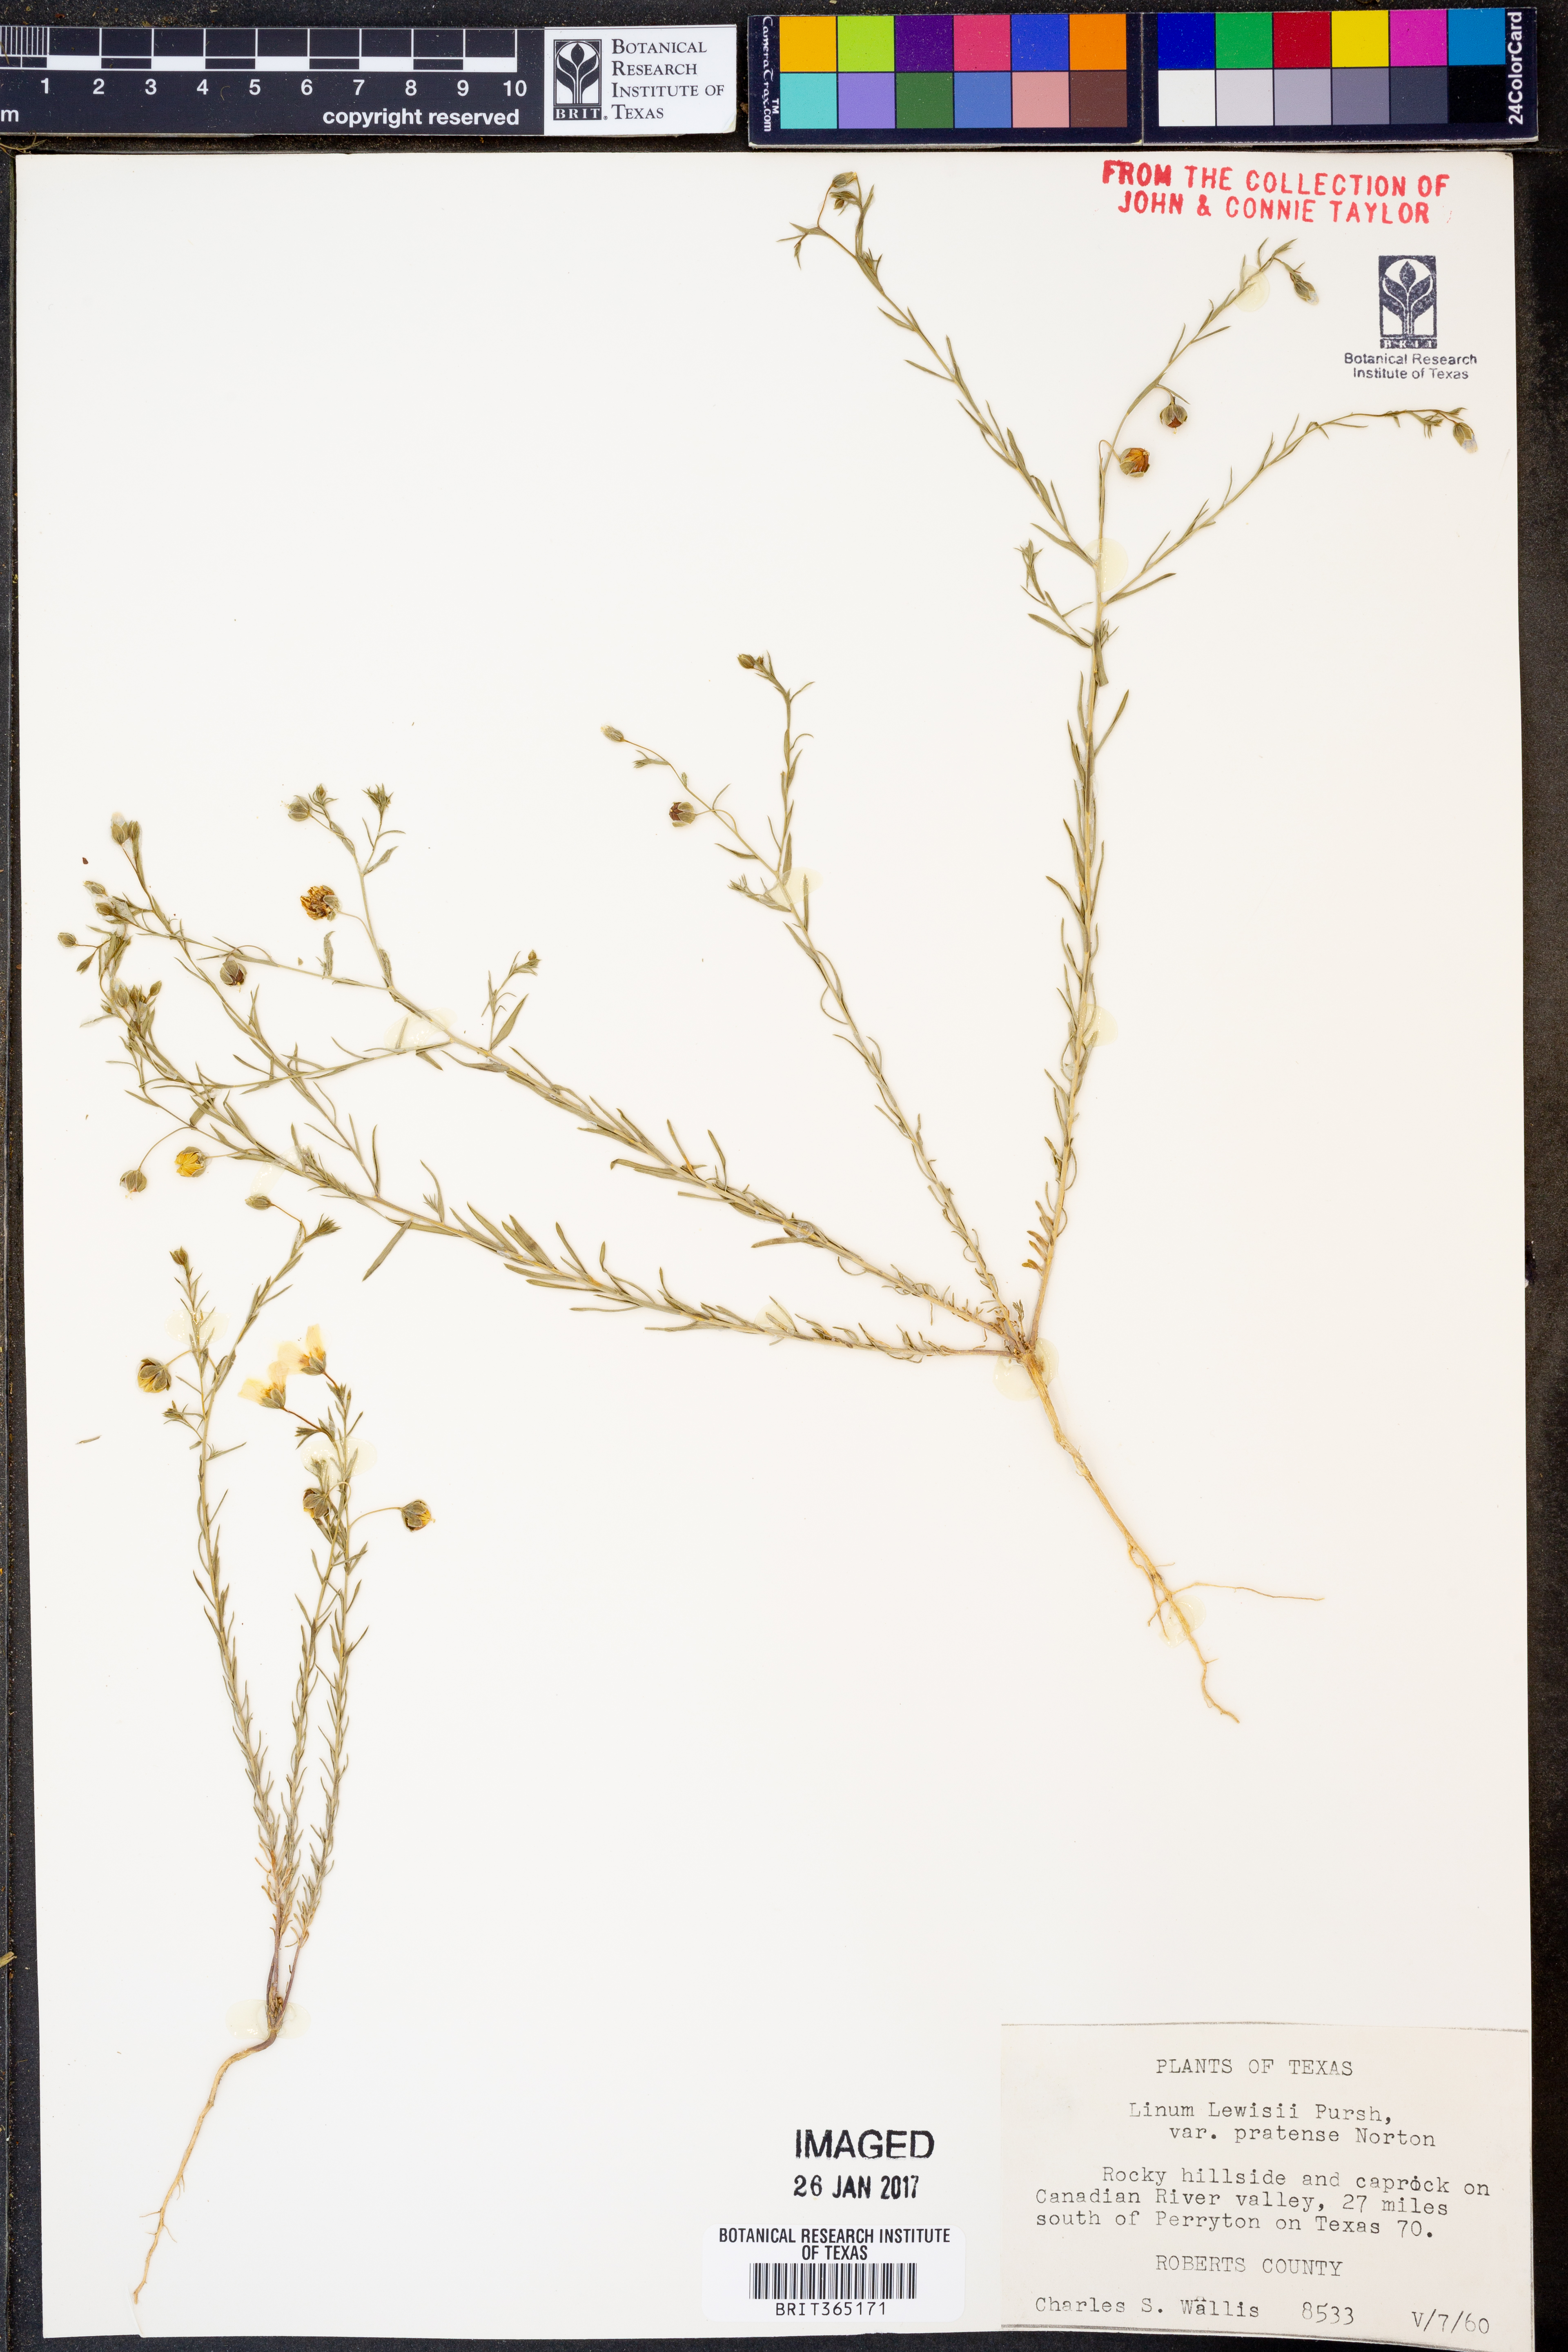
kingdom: Plantae
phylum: Tracheophyta
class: Magnoliopsida
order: Malpighiales
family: Linaceae
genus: Linum
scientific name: Linum pratense
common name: Norton's flax
